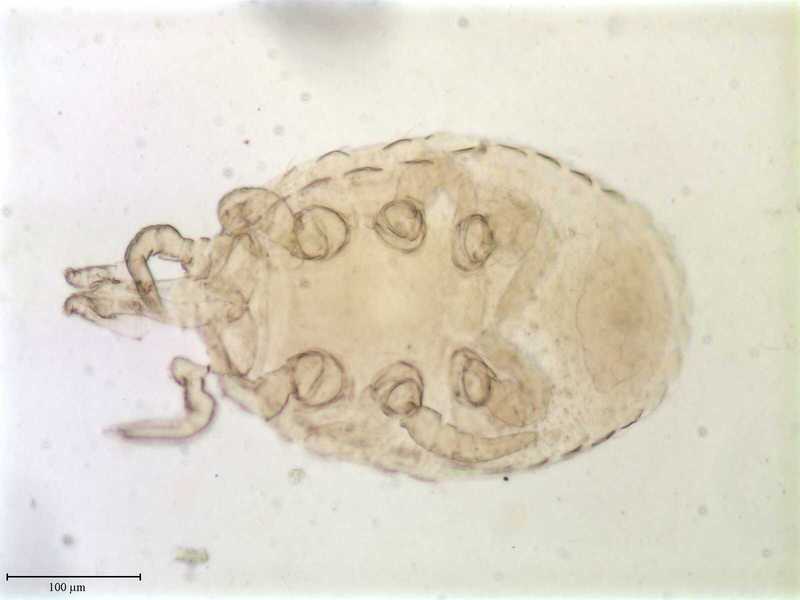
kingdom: Animalia
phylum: Arthropoda
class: Arachnida
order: Mesostigmata
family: Trematuridae
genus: Trichouropoda
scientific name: Trichouropoda sociata
